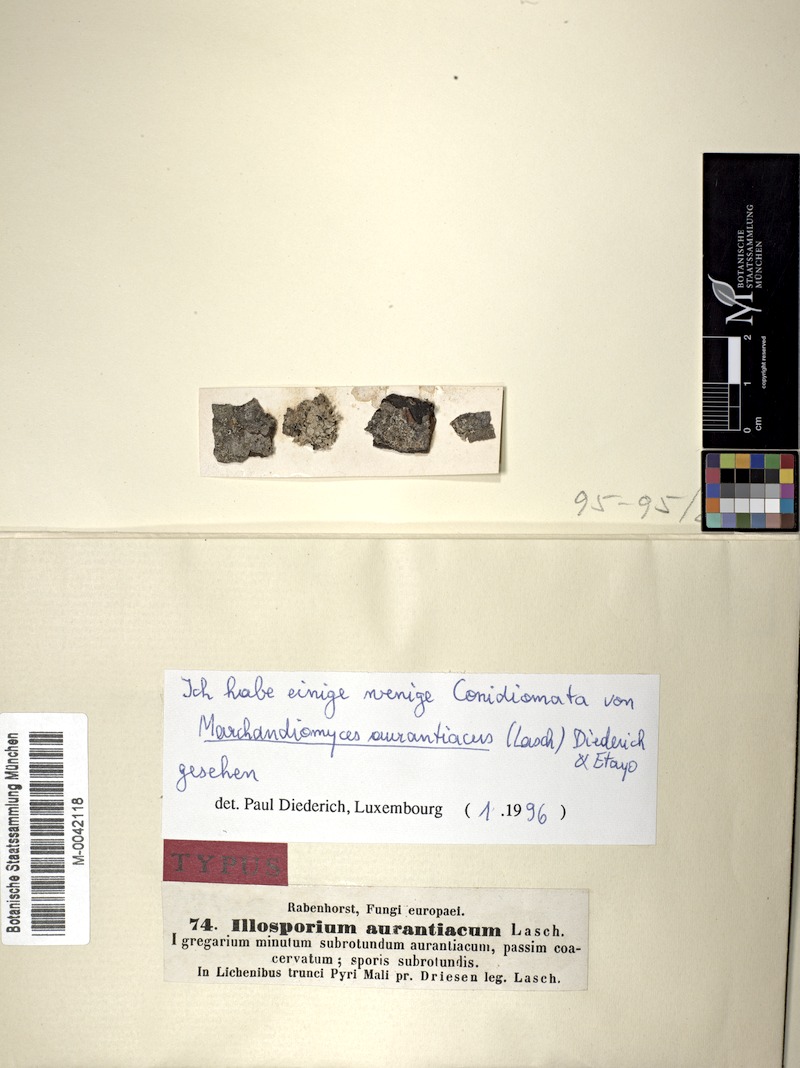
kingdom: Fungi
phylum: Basidiomycota
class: Agaricomycetes
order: Corticiales
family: Corticiaceae
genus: Erythricium
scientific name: Erythricium aurantiacum
